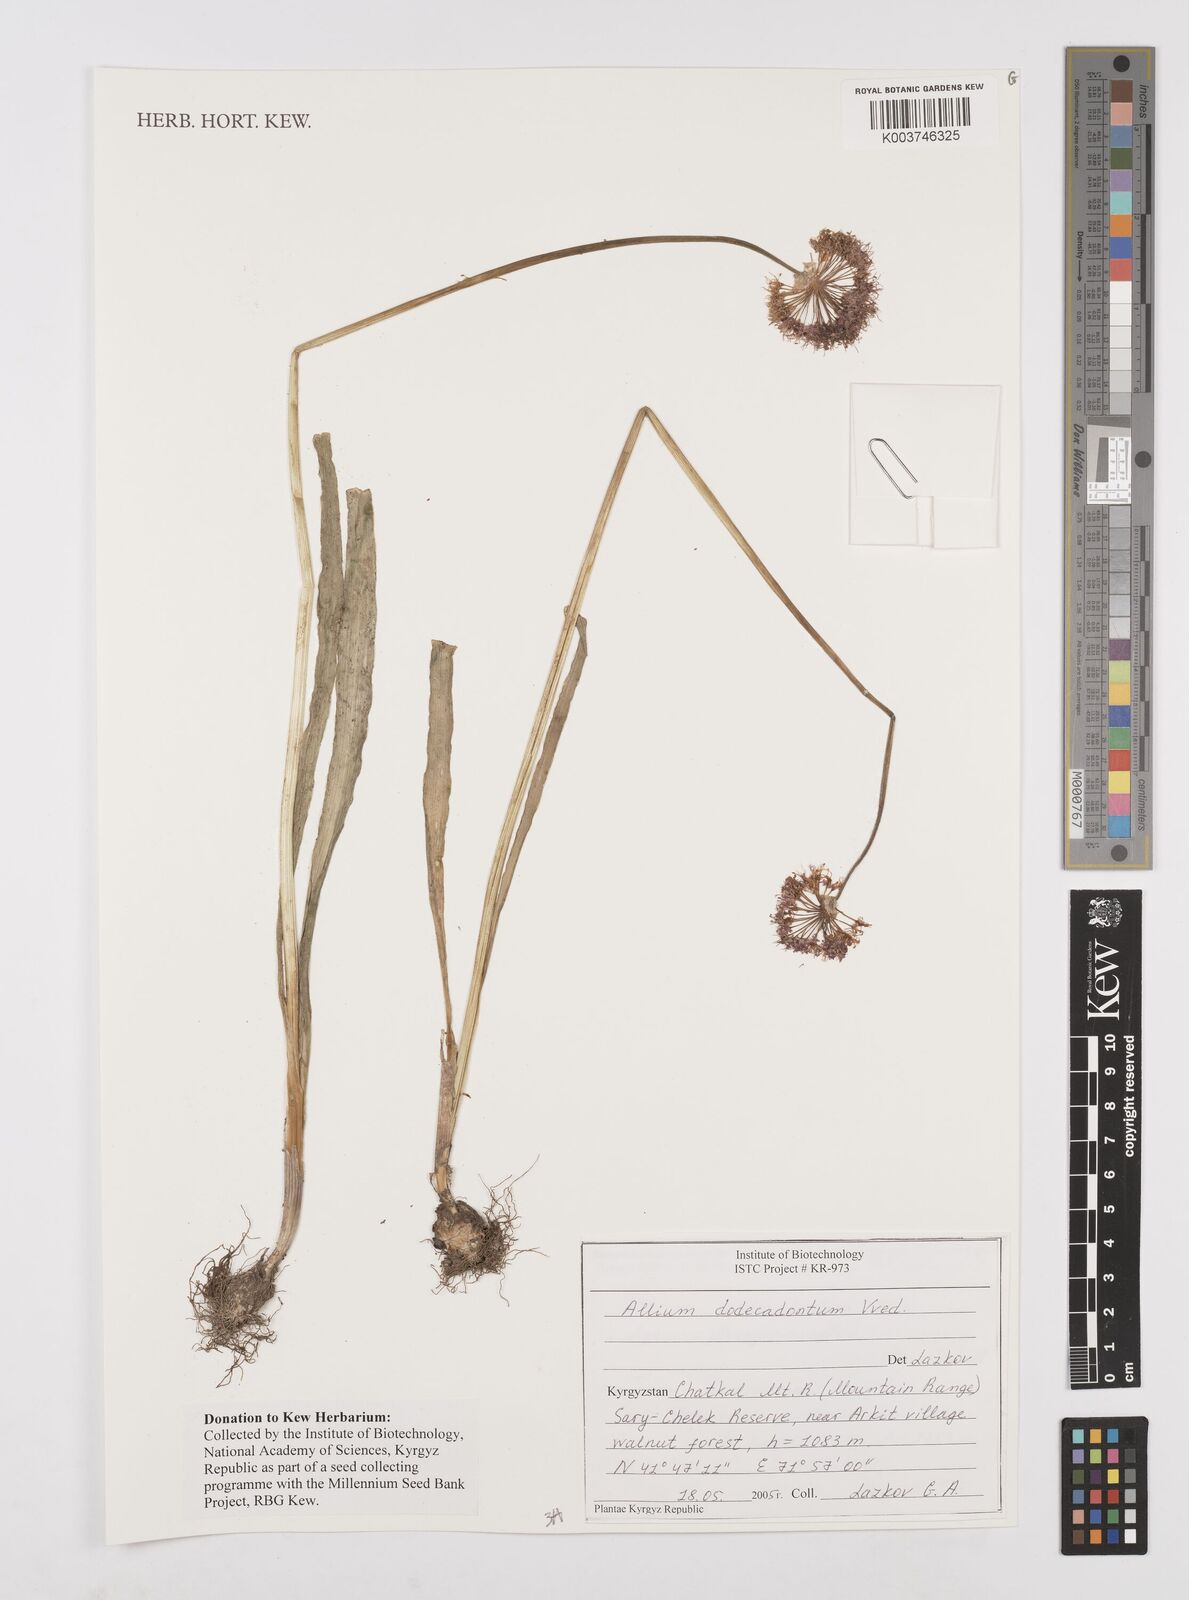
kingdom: Plantae
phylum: Tracheophyta
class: Liliopsida
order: Asparagales
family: Amaryllidaceae
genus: Allium
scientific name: Allium dodecadontum
